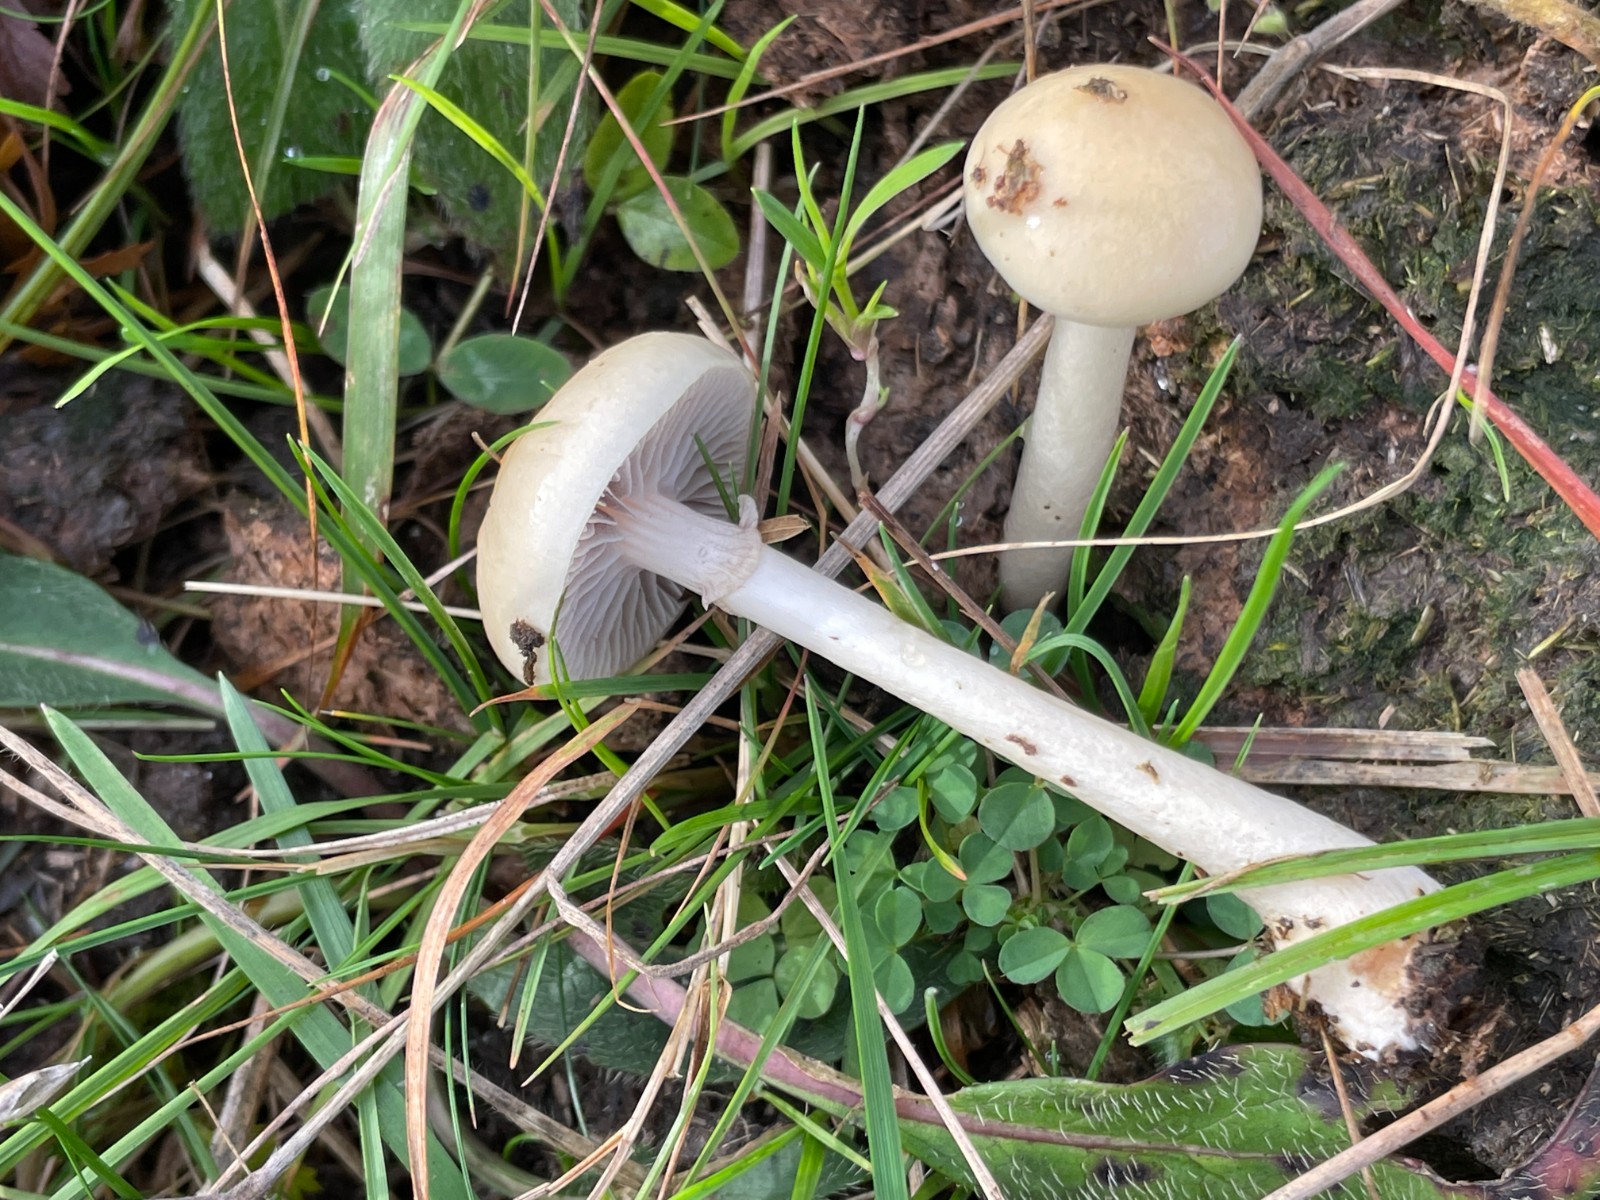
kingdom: Fungi
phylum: Basidiomycota
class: Agaricomycetes
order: Agaricales
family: Strophariaceae
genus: Protostropharia
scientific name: Protostropharia semiglobata
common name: halvkugleformet bredblad
